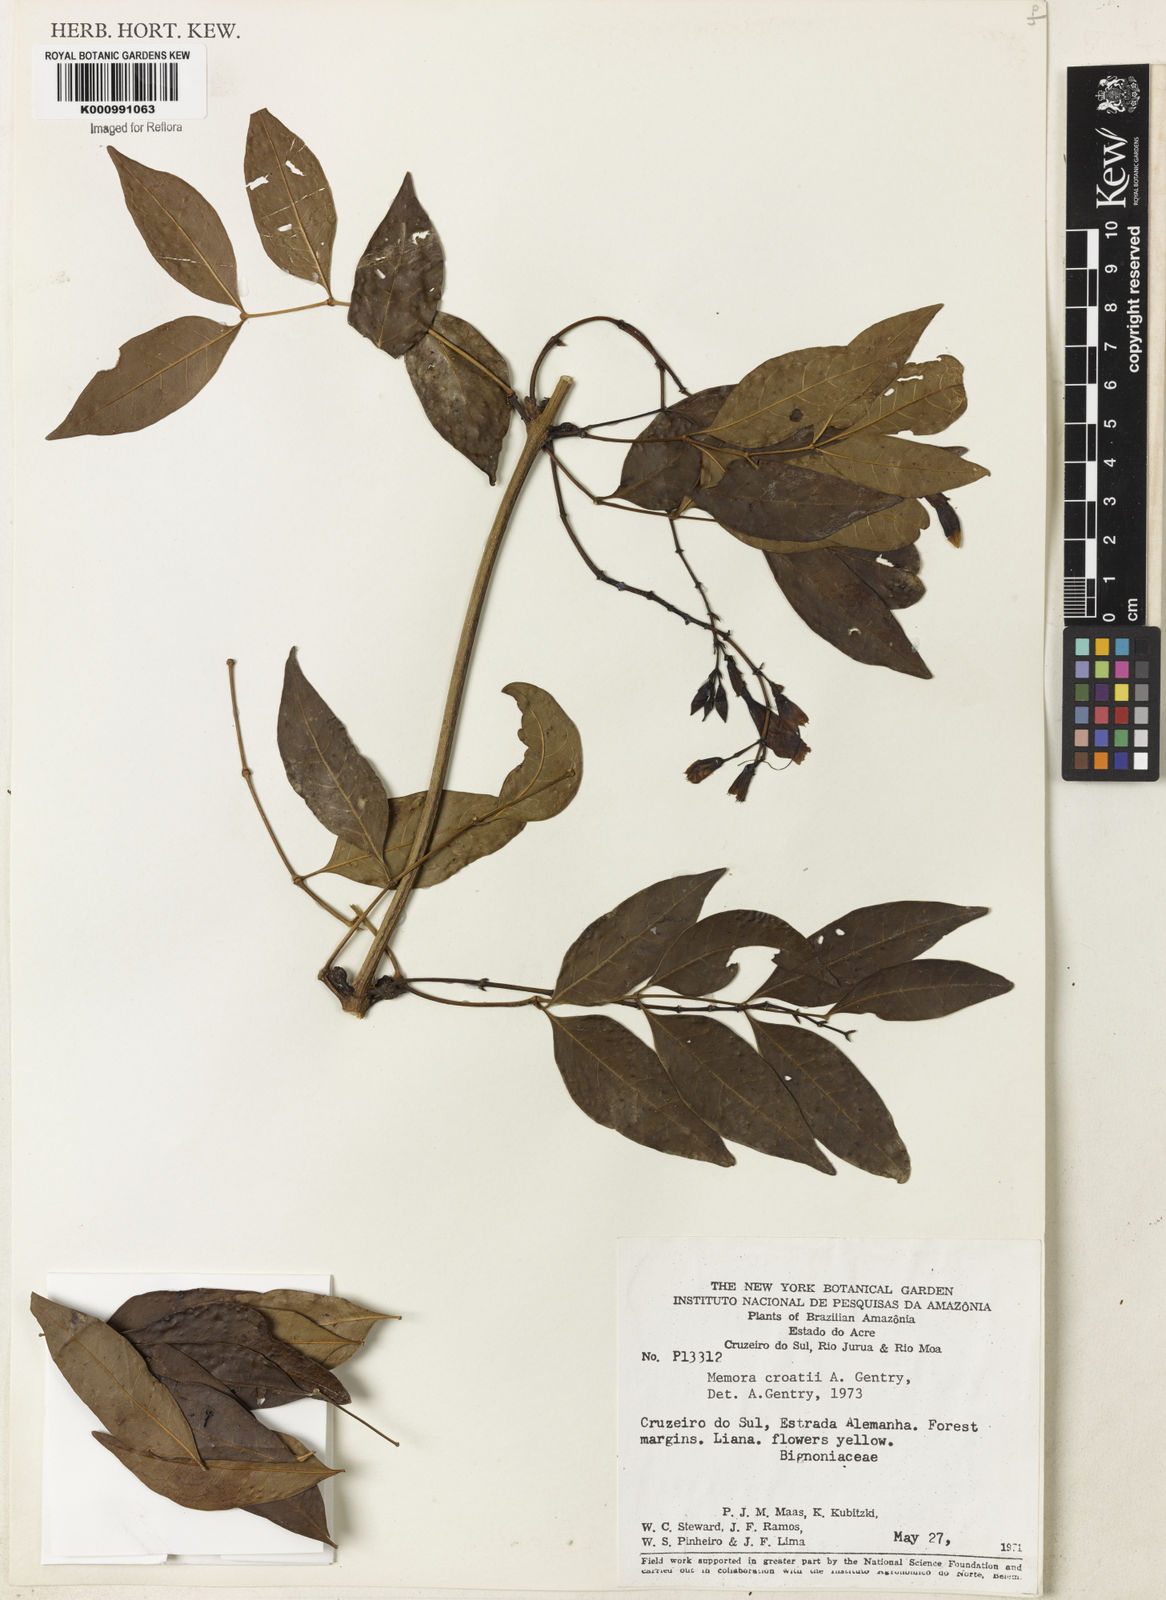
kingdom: Plantae
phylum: Tracheophyta
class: Magnoliopsida
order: Lamiales
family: Bignoniaceae
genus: Adenocalymma
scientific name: Adenocalymma croatii
